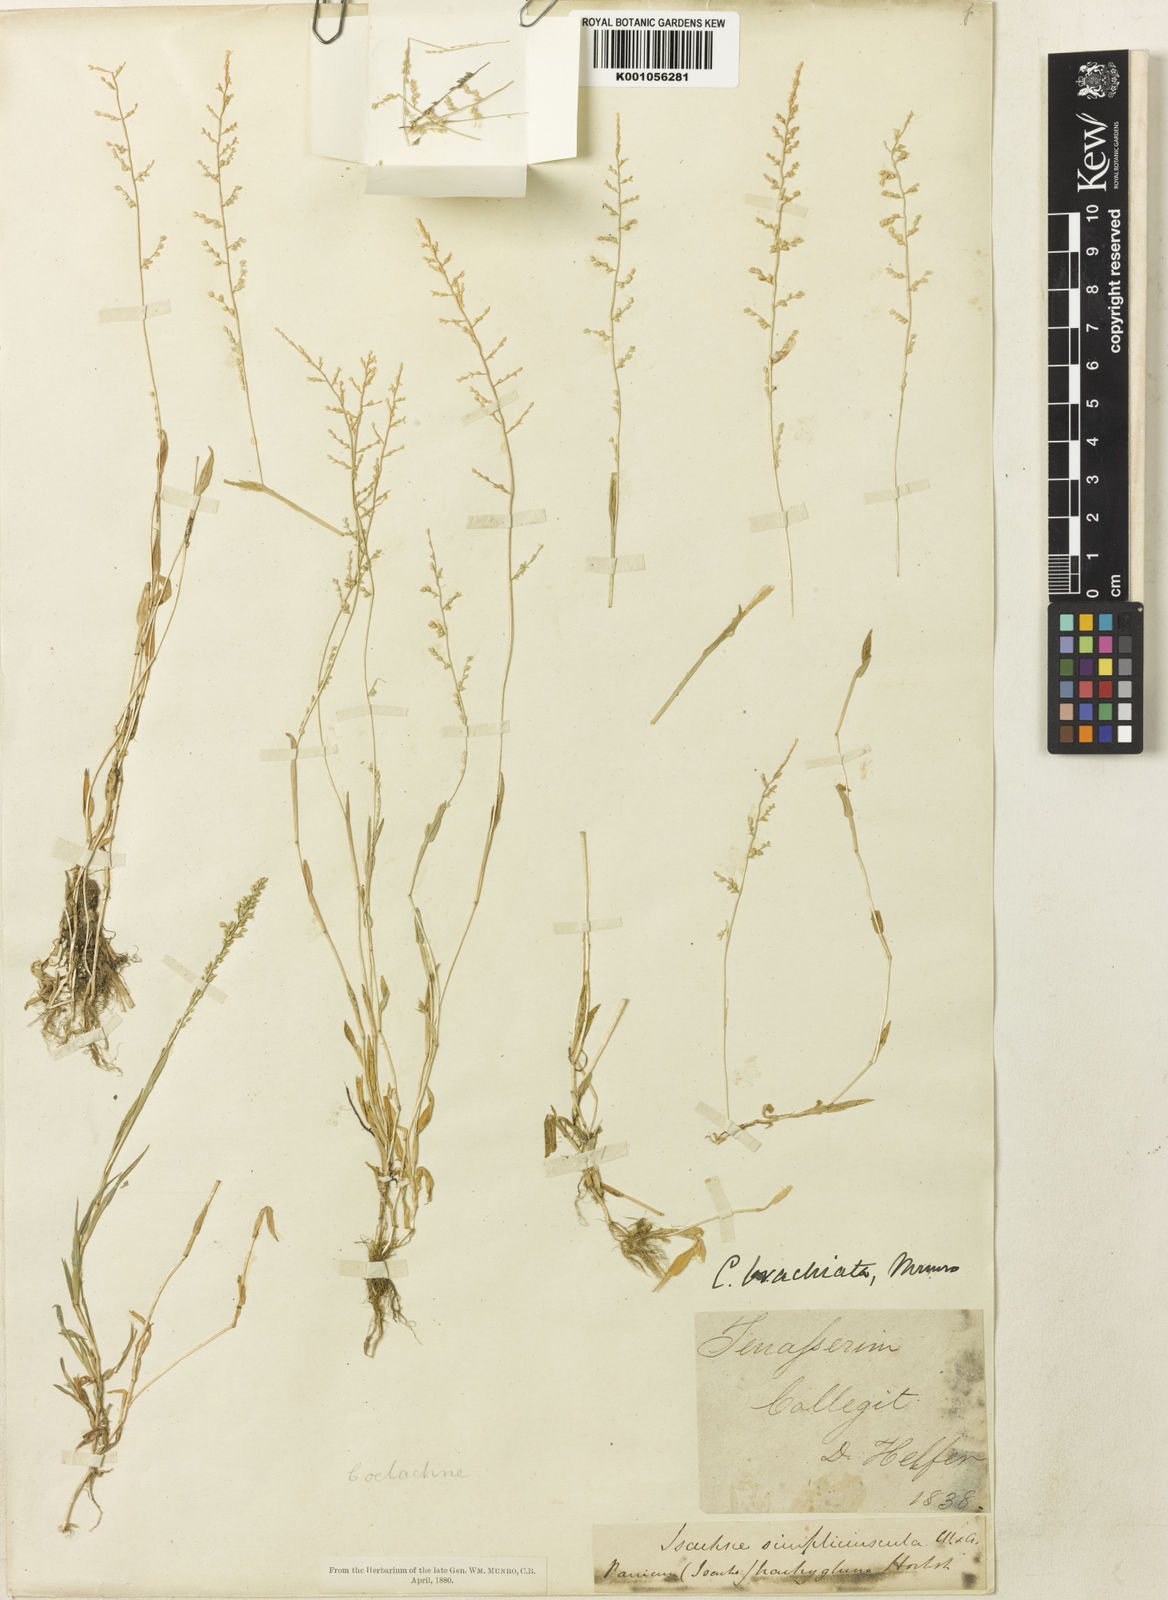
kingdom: Plantae
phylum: Tracheophyta
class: Liliopsida
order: Poales
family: Poaceae
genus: Coelachne
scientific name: Coelachne simpliciuscula
